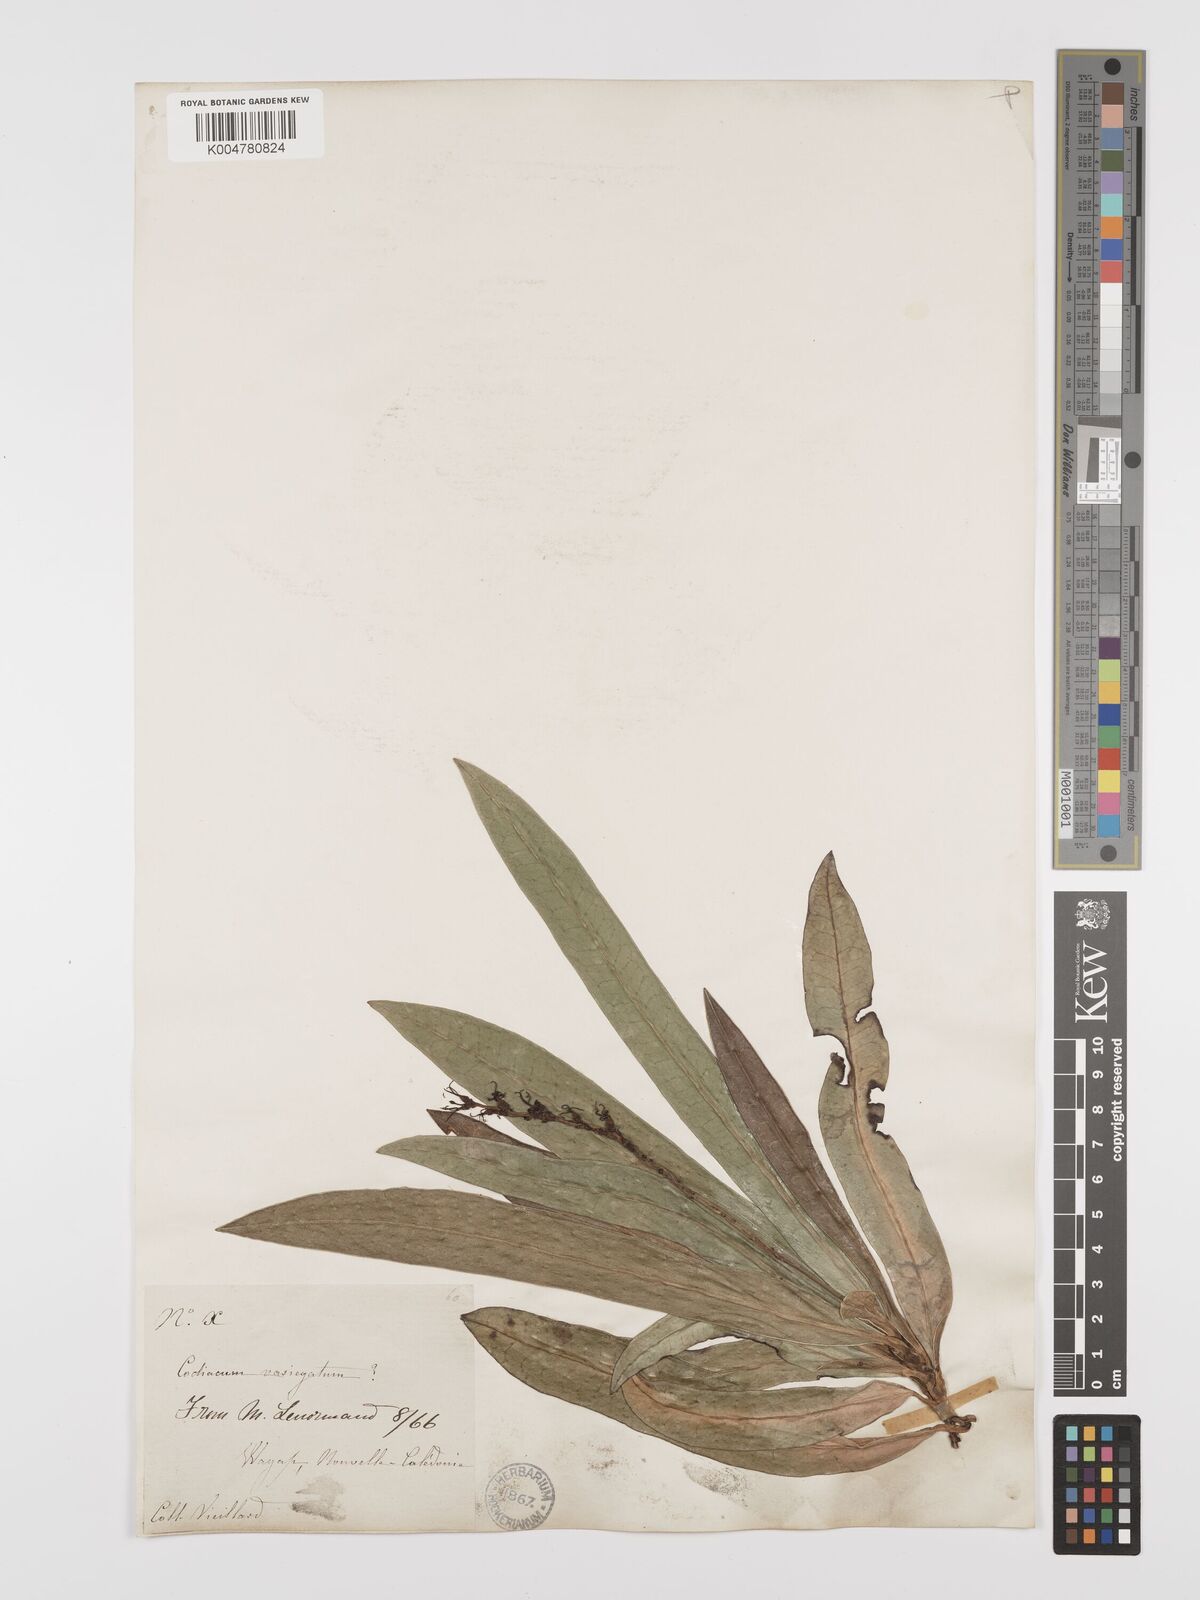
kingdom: Plantae
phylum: Tracheophyta
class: Magnoliopsida
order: Malpighiales
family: Euphorbiaceae
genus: Codiaeum
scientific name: Codiaeum variegatum
